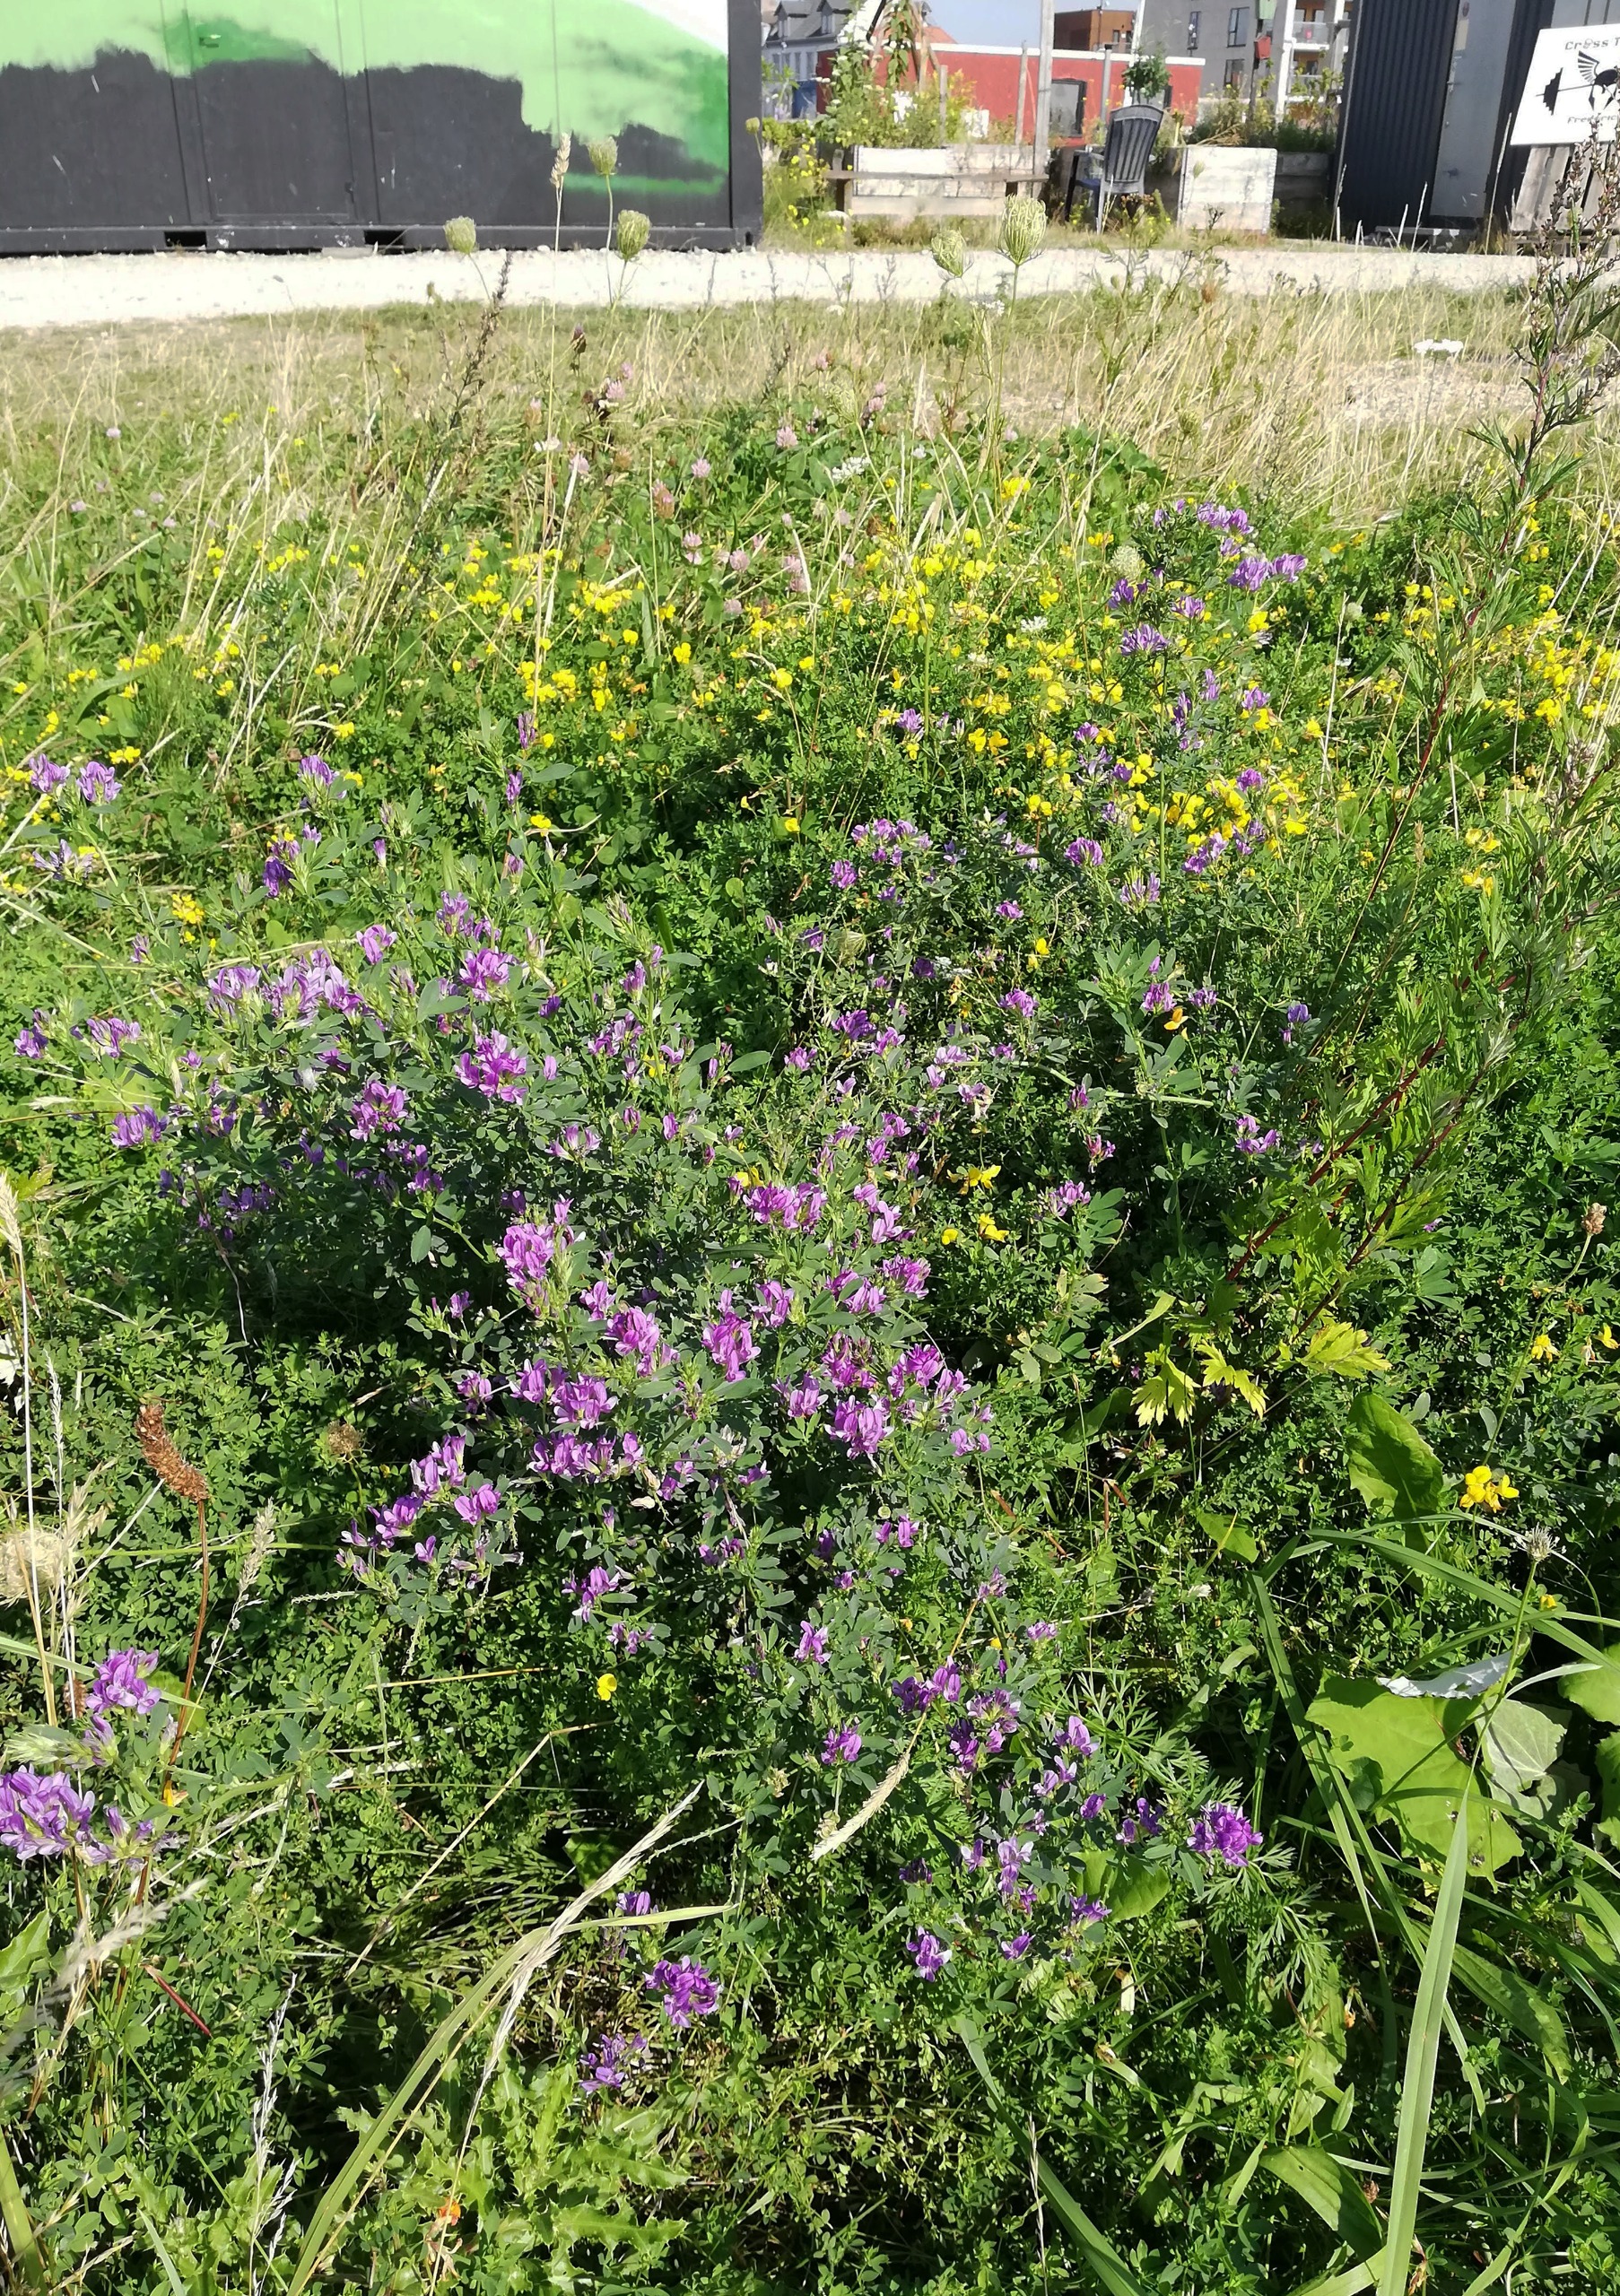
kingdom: Plantae
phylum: Tracheophyta
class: Magnoliopsida
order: Fabales
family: Fabaceae
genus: Medicago
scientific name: Medicago sativa
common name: Lucerne
